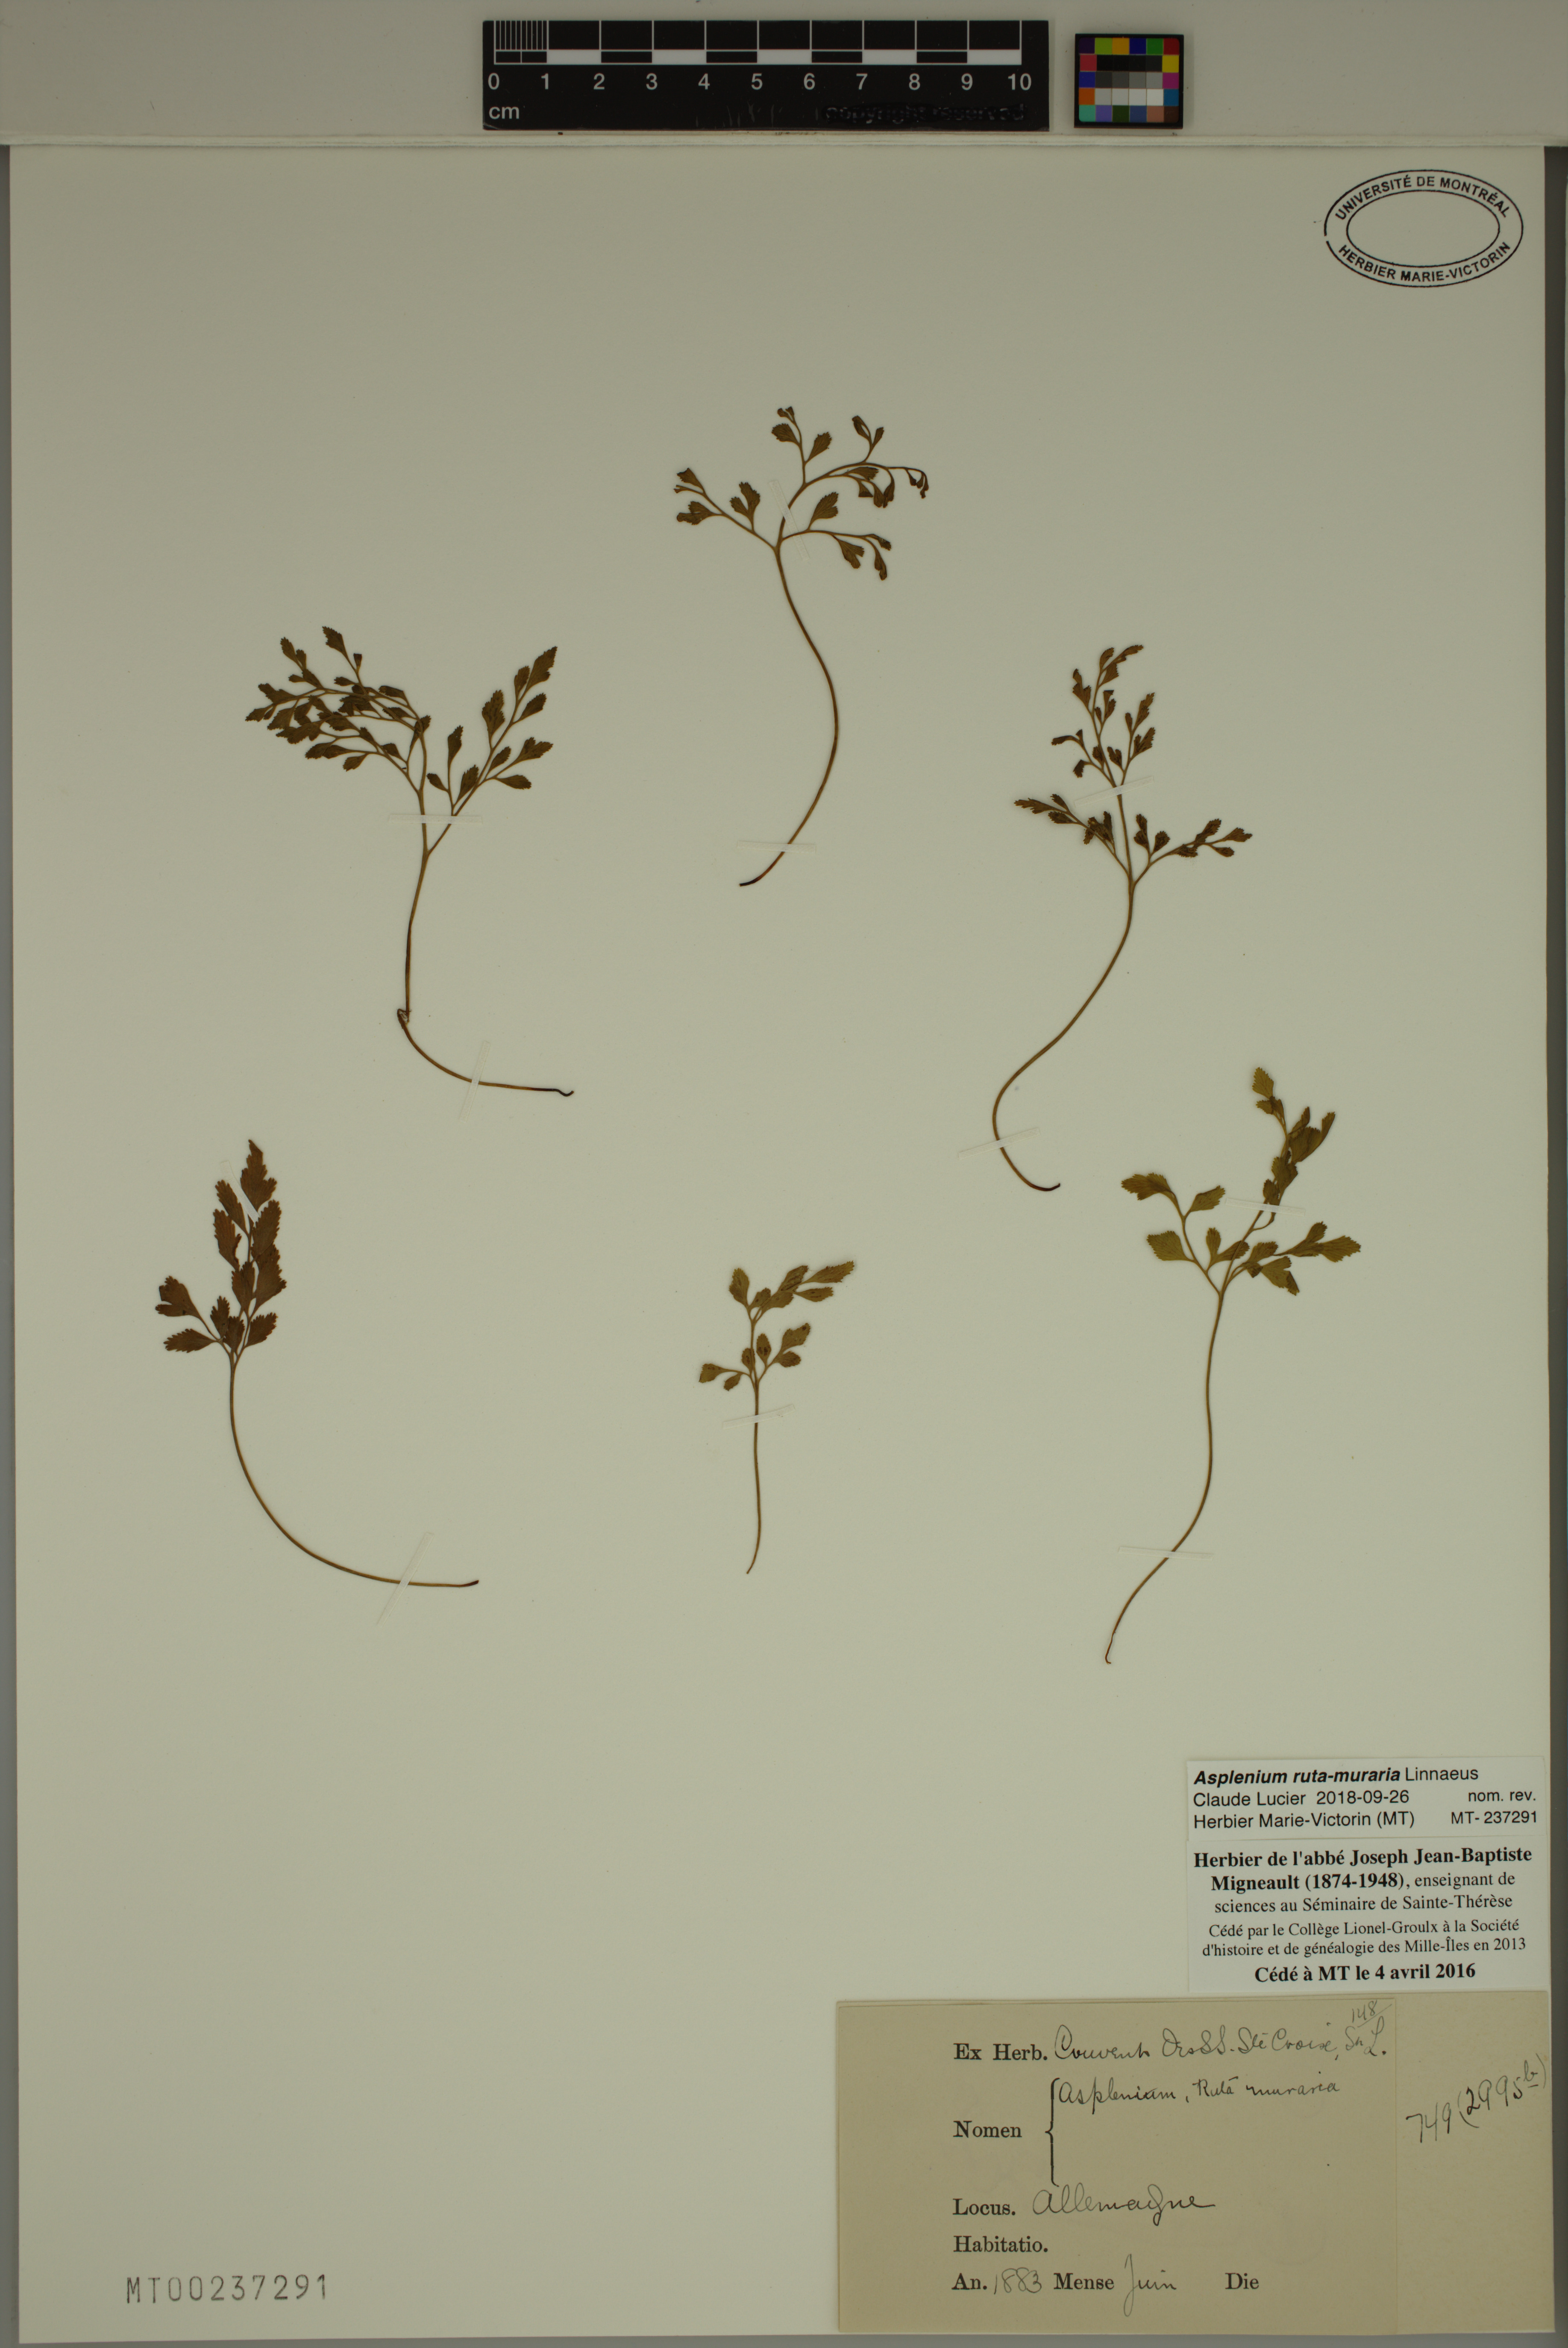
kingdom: Plantae
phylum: Tracheophyta
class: Polypodiopsida
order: Polypodiales
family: Aspleniaceae
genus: Asplenium
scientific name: Asplenium ruta-muraria
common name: Wall-rue
